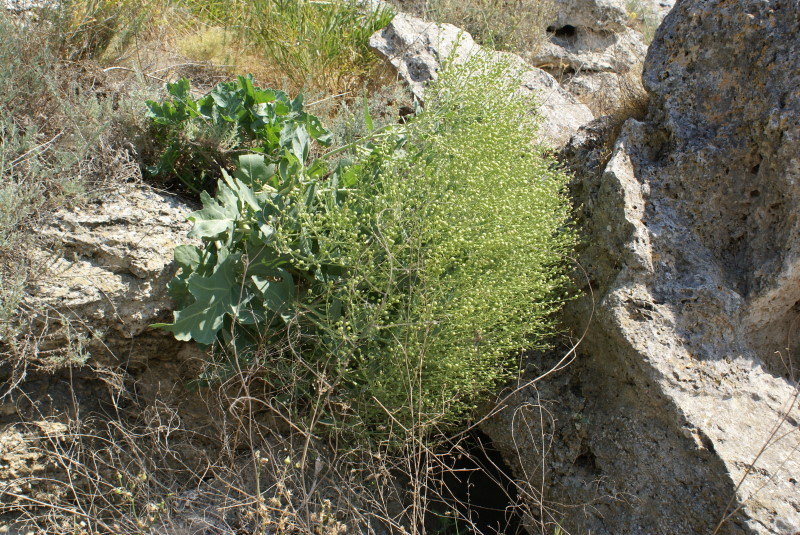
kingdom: Plantae
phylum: Tracheophyta
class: Magnoliopsida
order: Brassicales
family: Brassicaceae
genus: Crambe
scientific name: Crambe maritima
